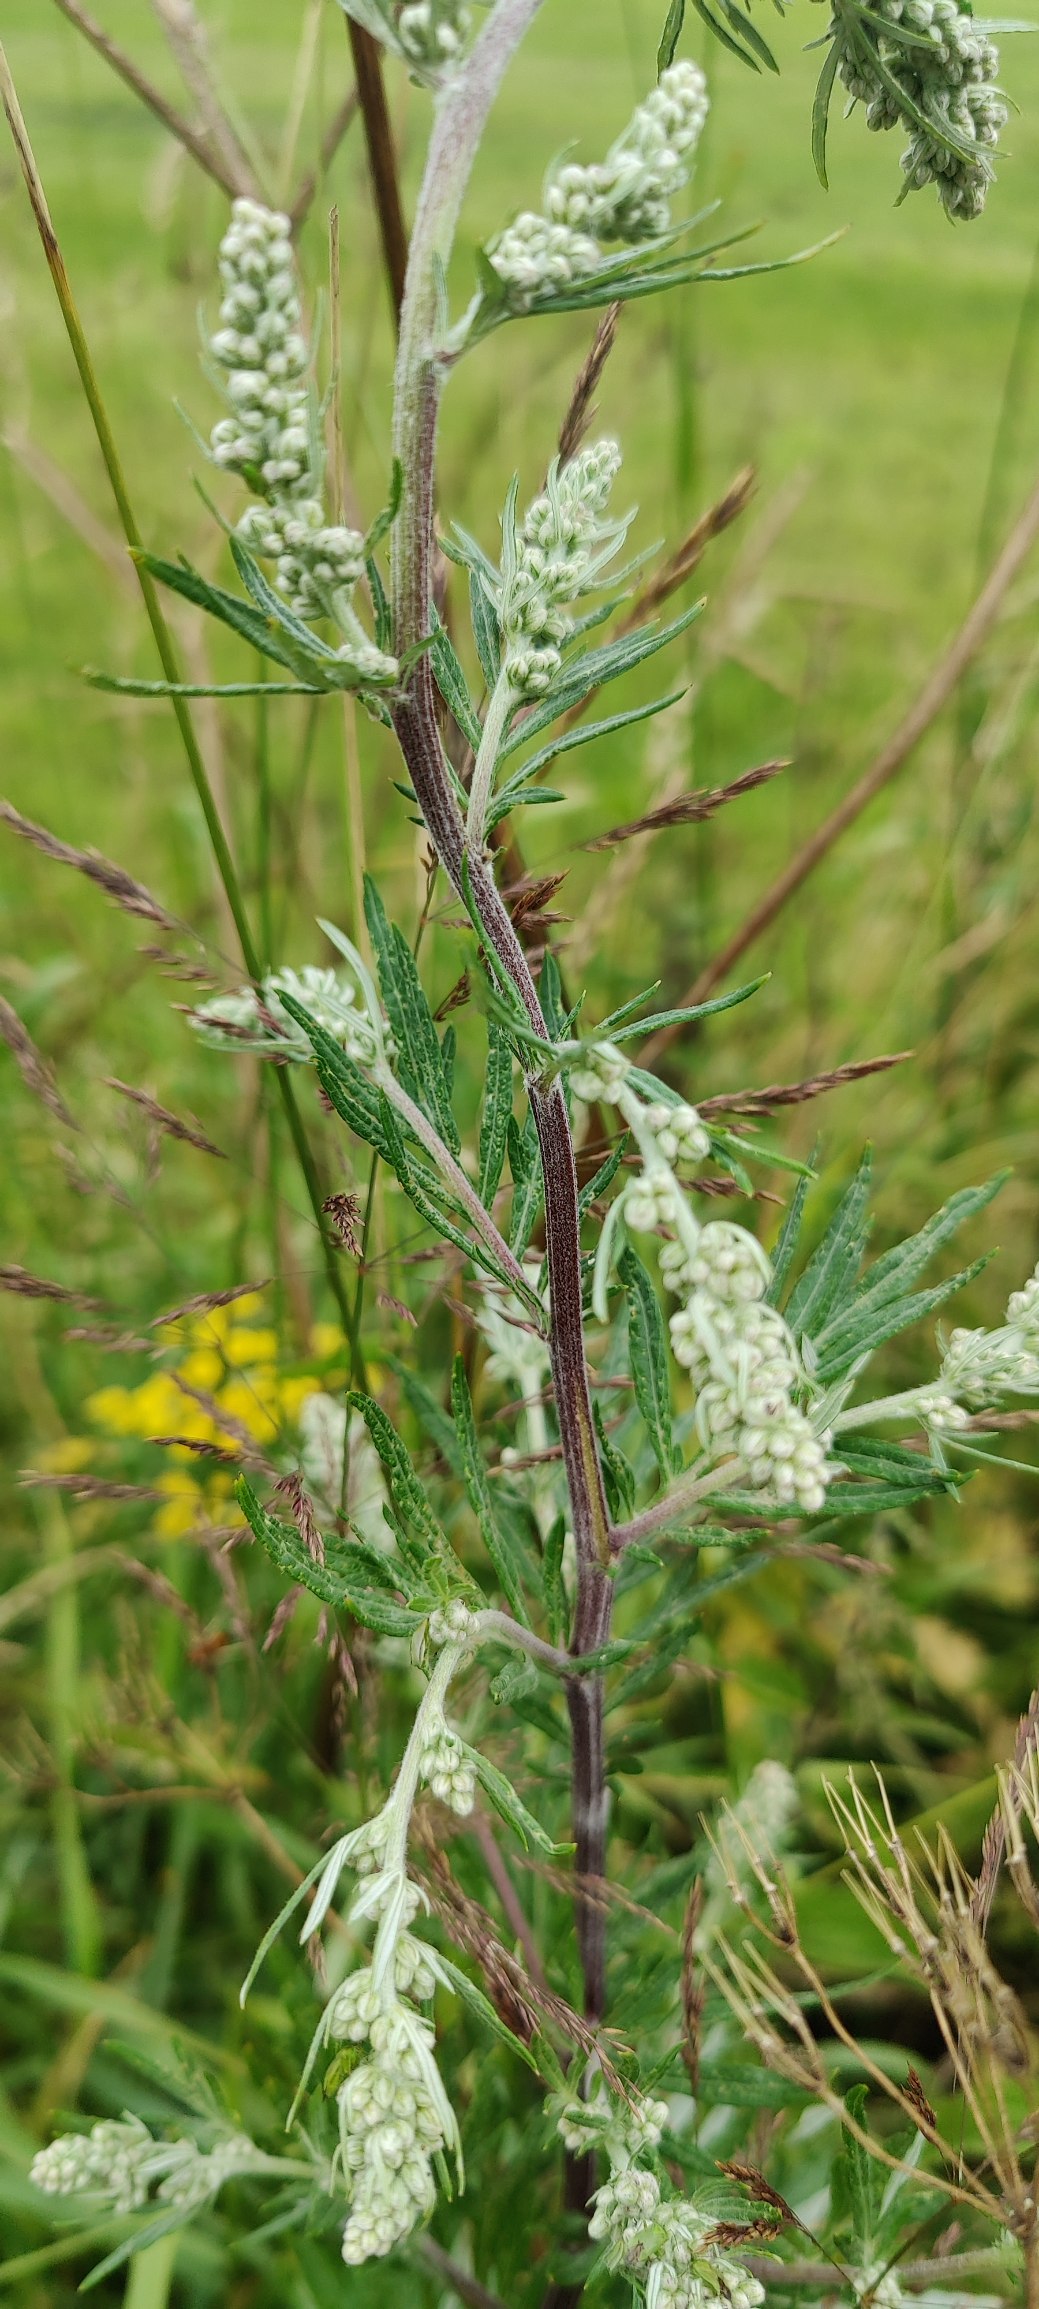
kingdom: Plantae
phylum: Tracheophyta
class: Magnoliopsida
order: Asterales
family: Asteraceae
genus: Artemisia
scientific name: Artemisia vulgaris
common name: Grå-bynke
